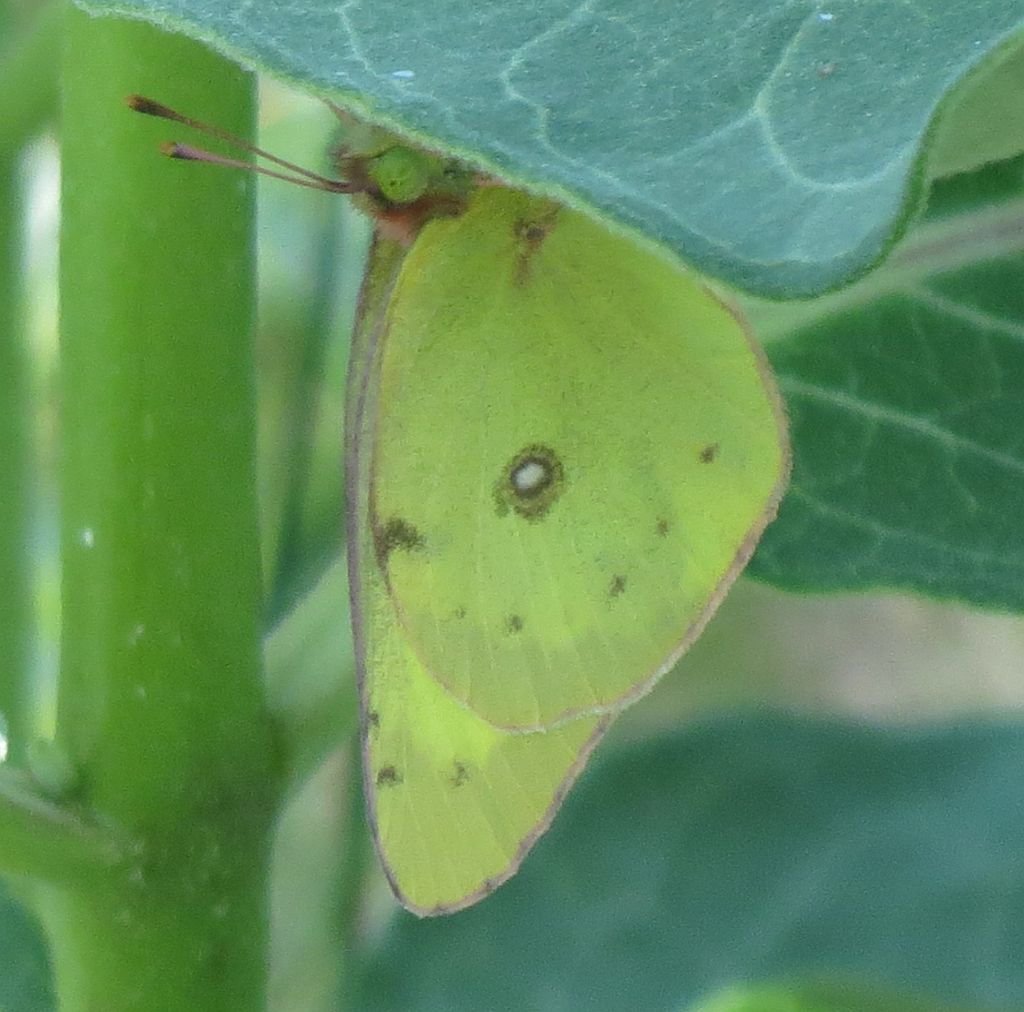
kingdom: Animalia
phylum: Arthropoda
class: Insecta
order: Lepidoptera
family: Pieridae
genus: Colias
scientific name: Colias philodice
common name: Clouded Sulphur
